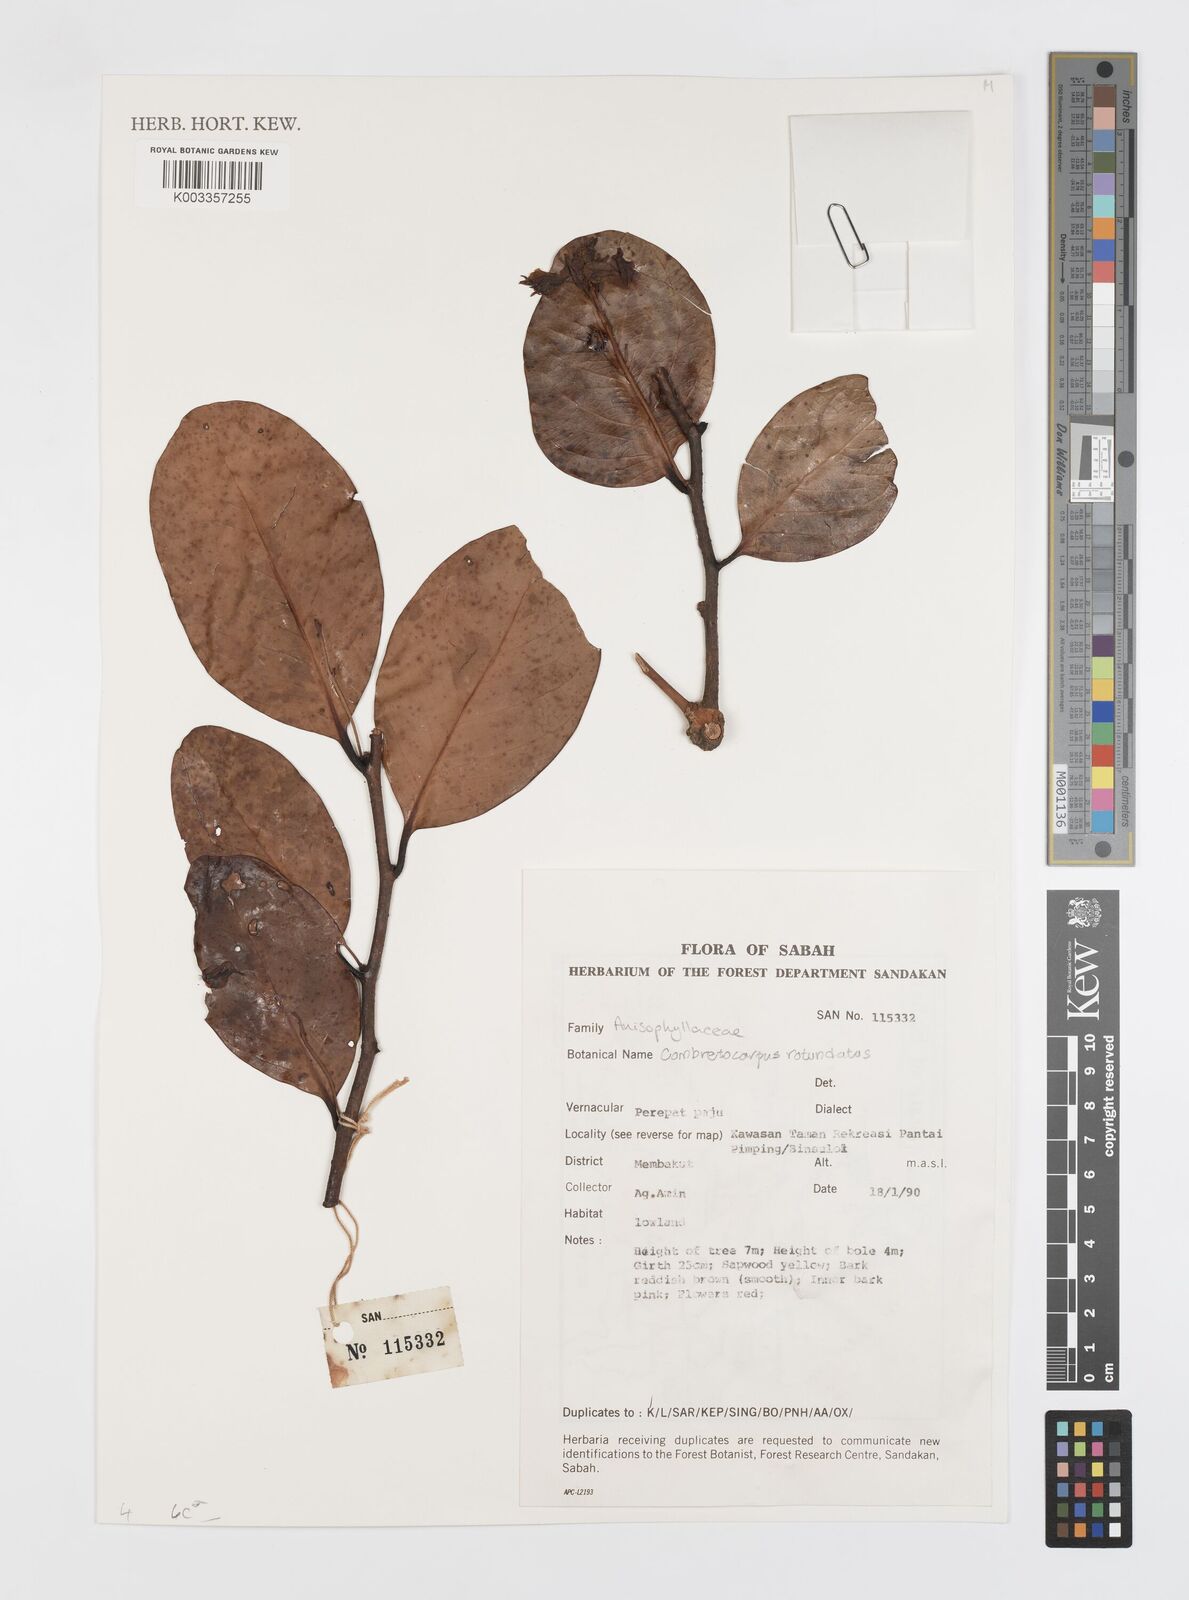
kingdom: Plantae
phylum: Tracheophyta
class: Magnoliopsida
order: Cucurbitales
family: Anisophylleaceae
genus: Combretocarpus
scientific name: Combretocarpus rotundatus
